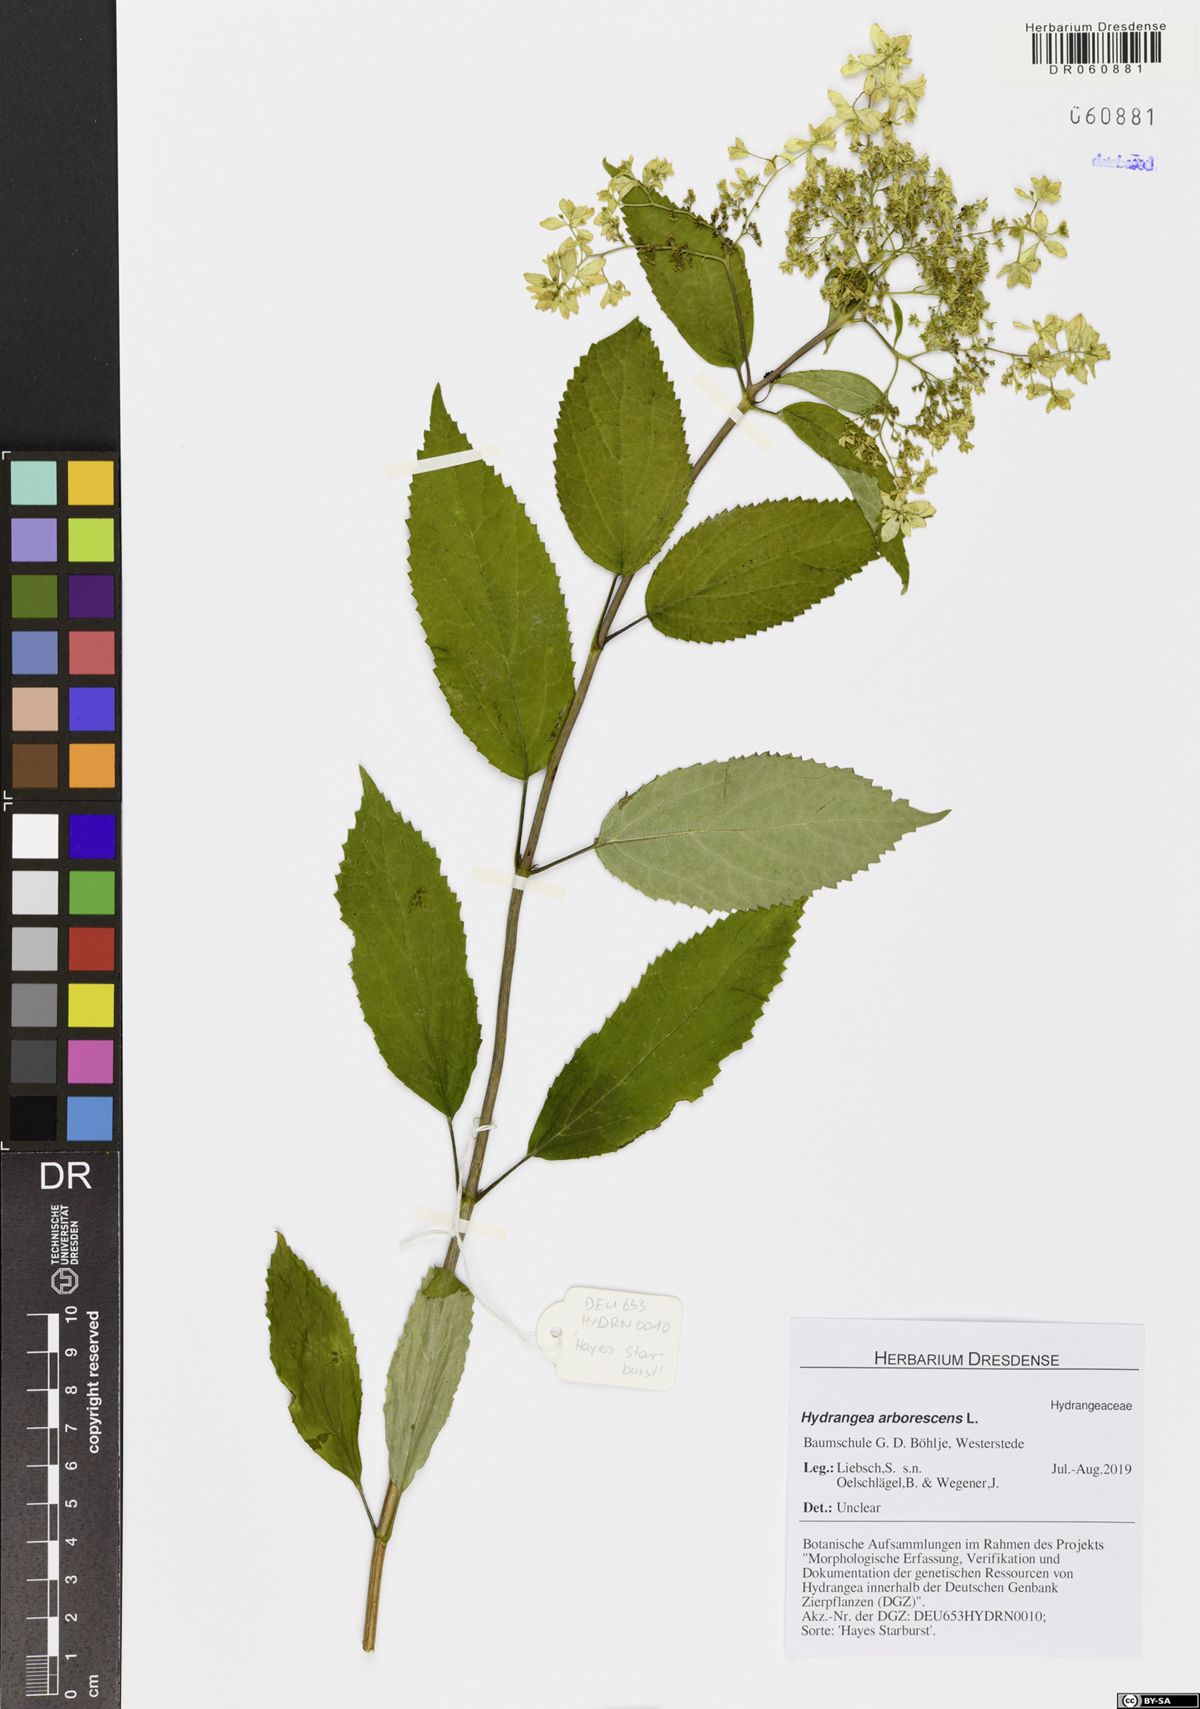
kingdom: Plantae
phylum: Tracheophyta
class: Magnoliopsida
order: Cornales
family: Hydrangeaceae
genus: Hydrangea
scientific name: Hydrangea arborescens
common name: Sevenbark
